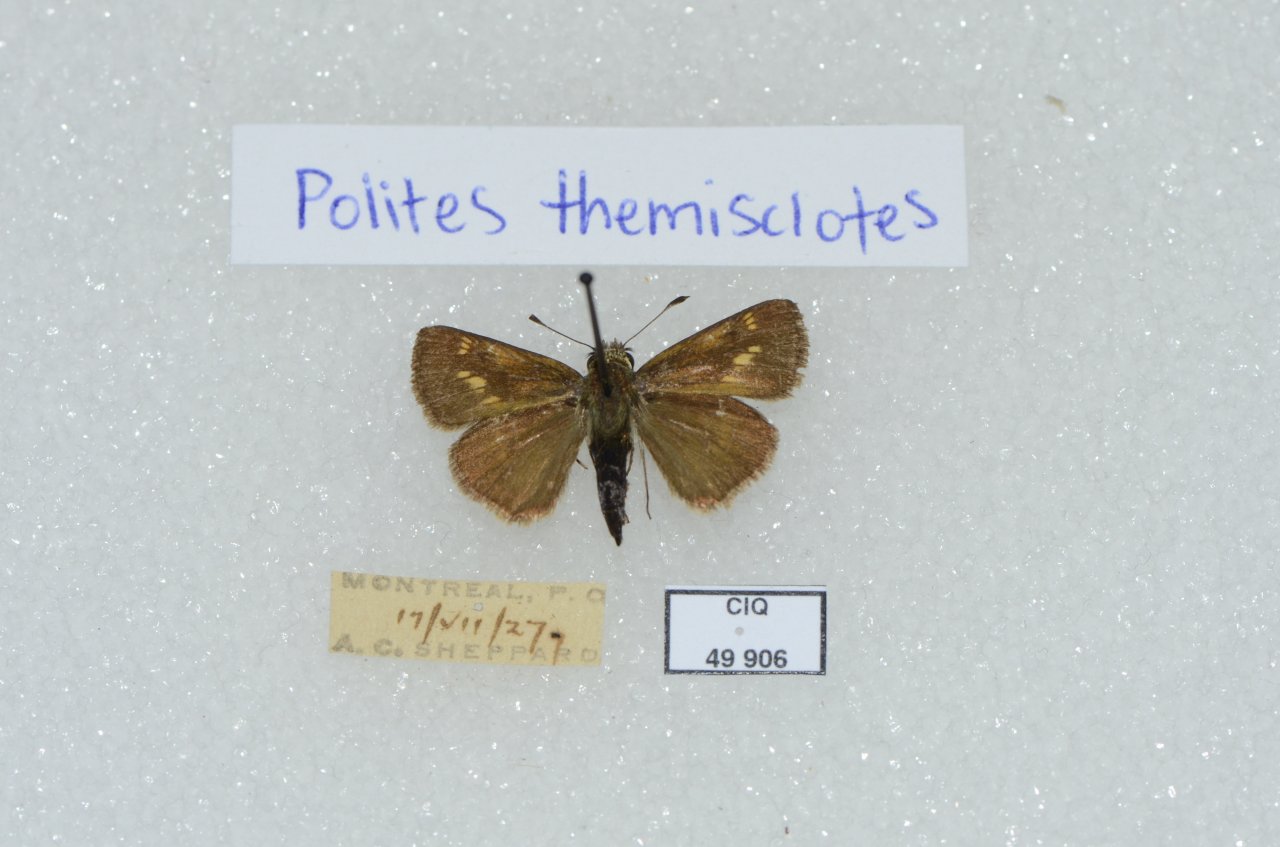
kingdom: Animalia
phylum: Arthropoda
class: Insecta
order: Lepidoptera
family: Hesperiidae
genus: Polites
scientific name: Polites themistocles
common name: Tawny-edged Skipper
